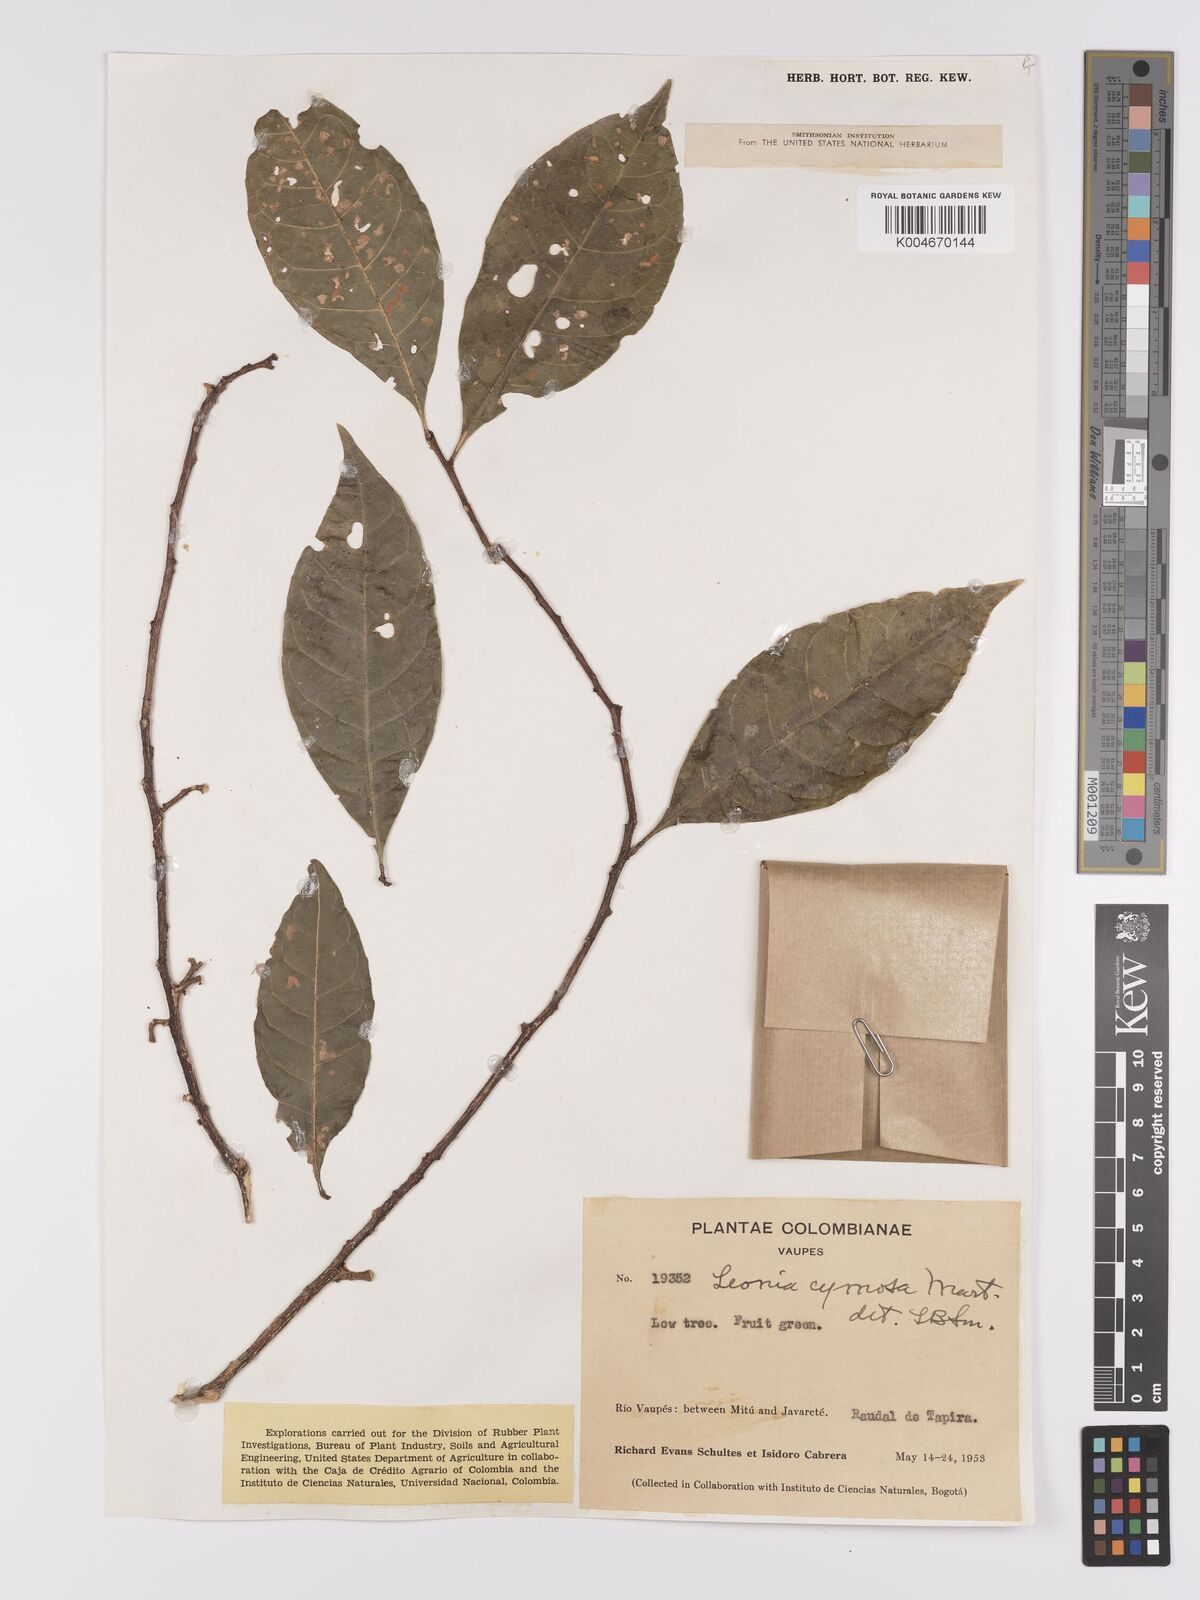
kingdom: Plantae
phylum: Tracheophyta
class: Magnoliopsida
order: Malpighiales
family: Violaceae
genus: Leonia
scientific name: Leonia cymosa
